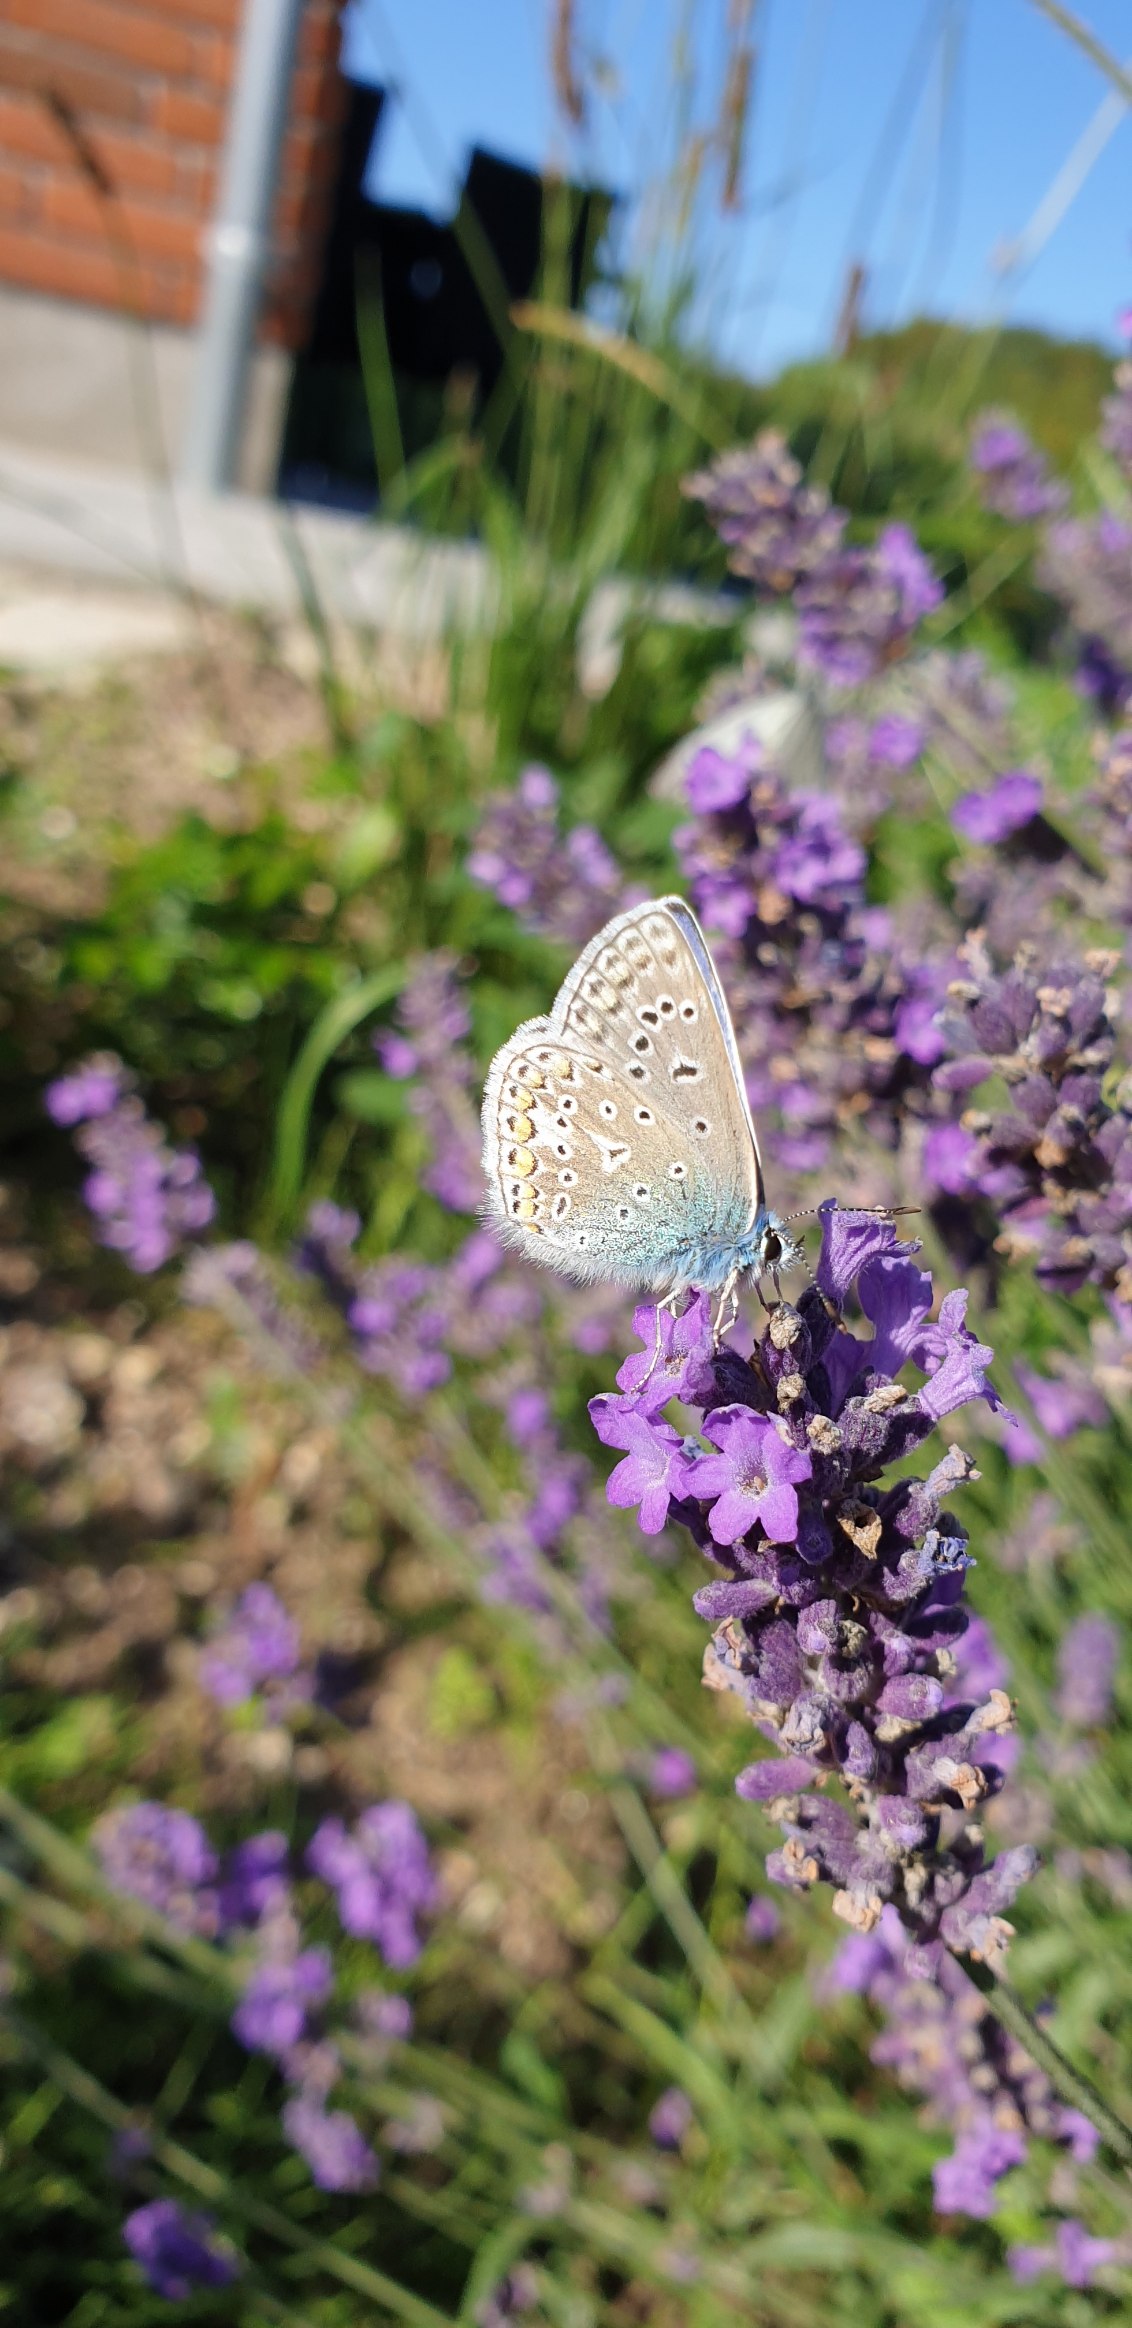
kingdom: Animalia
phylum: Arthropoda
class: Insecta
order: Lepidoptera
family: Lycaenidae
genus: Polyommatus
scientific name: Polyommatus icarus
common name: Almindelig blåfugl
